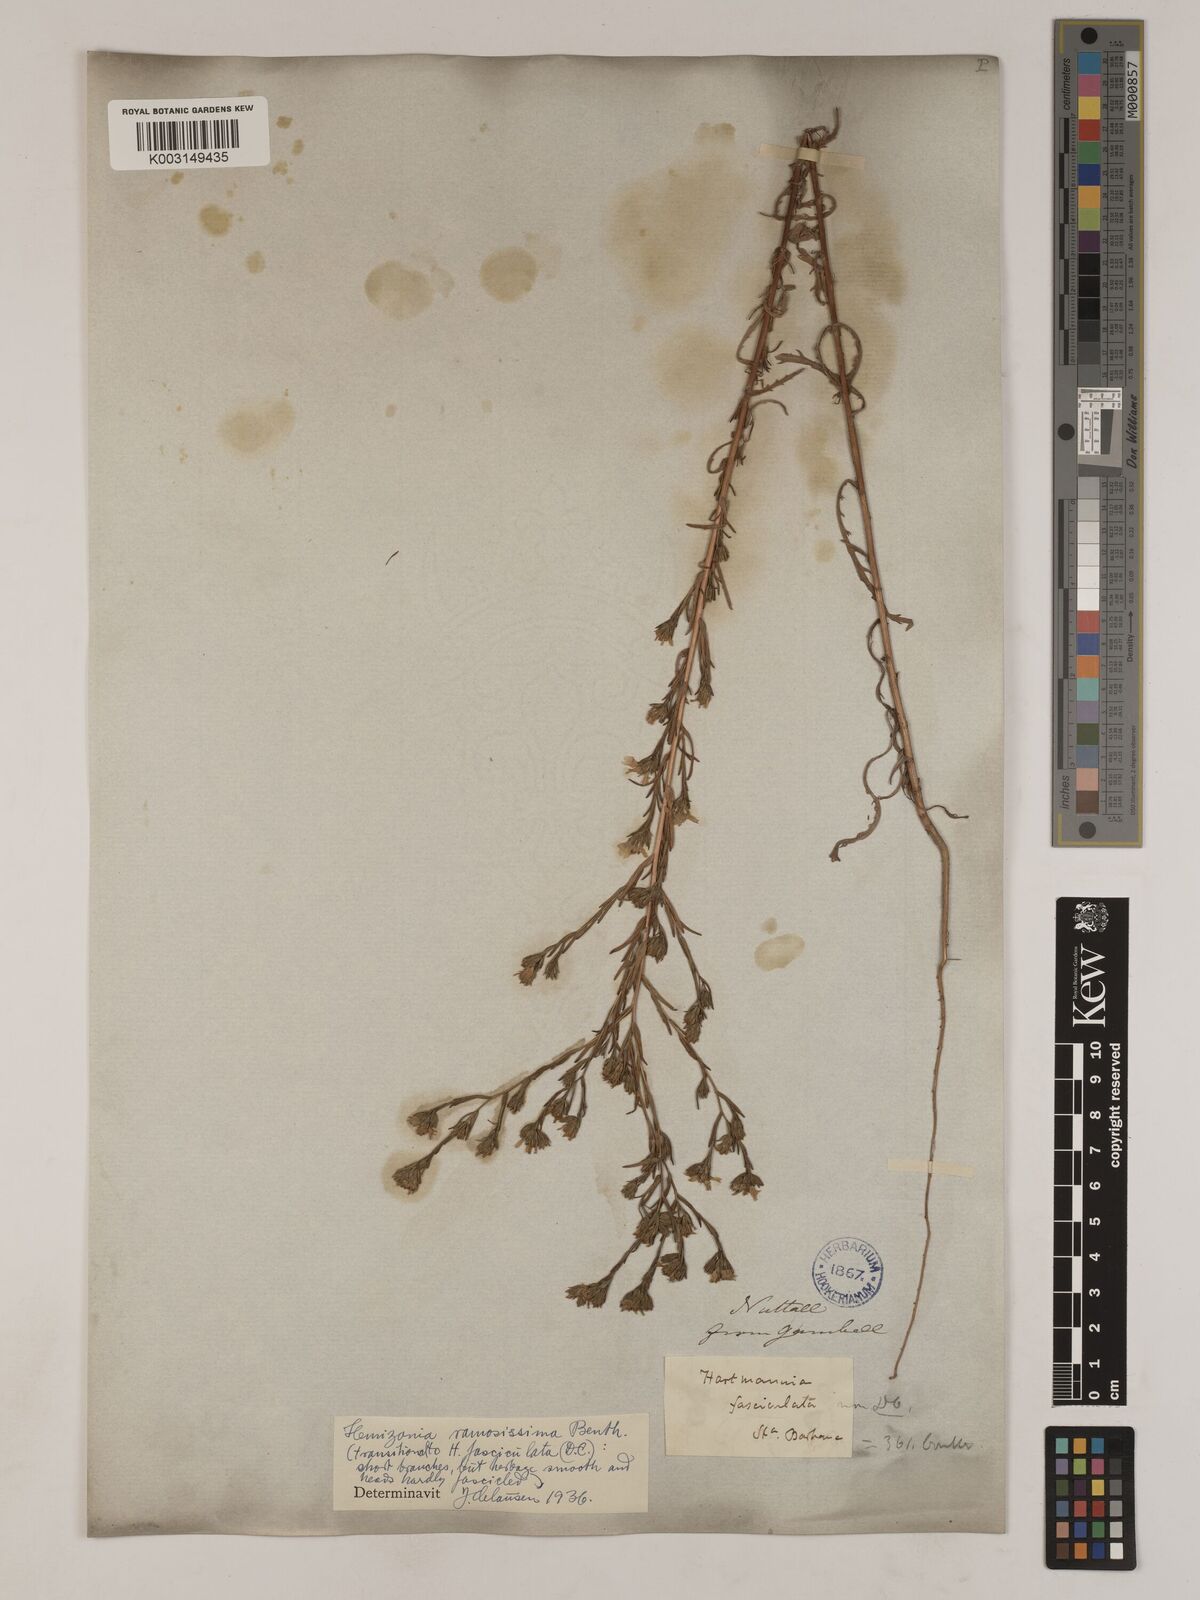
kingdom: Plantae
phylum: Tracheophyta
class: Magnoliopsida
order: Asterales
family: Asteraceae
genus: Deinandra
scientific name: Deinandra fasciculata
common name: Clustered tarweed
